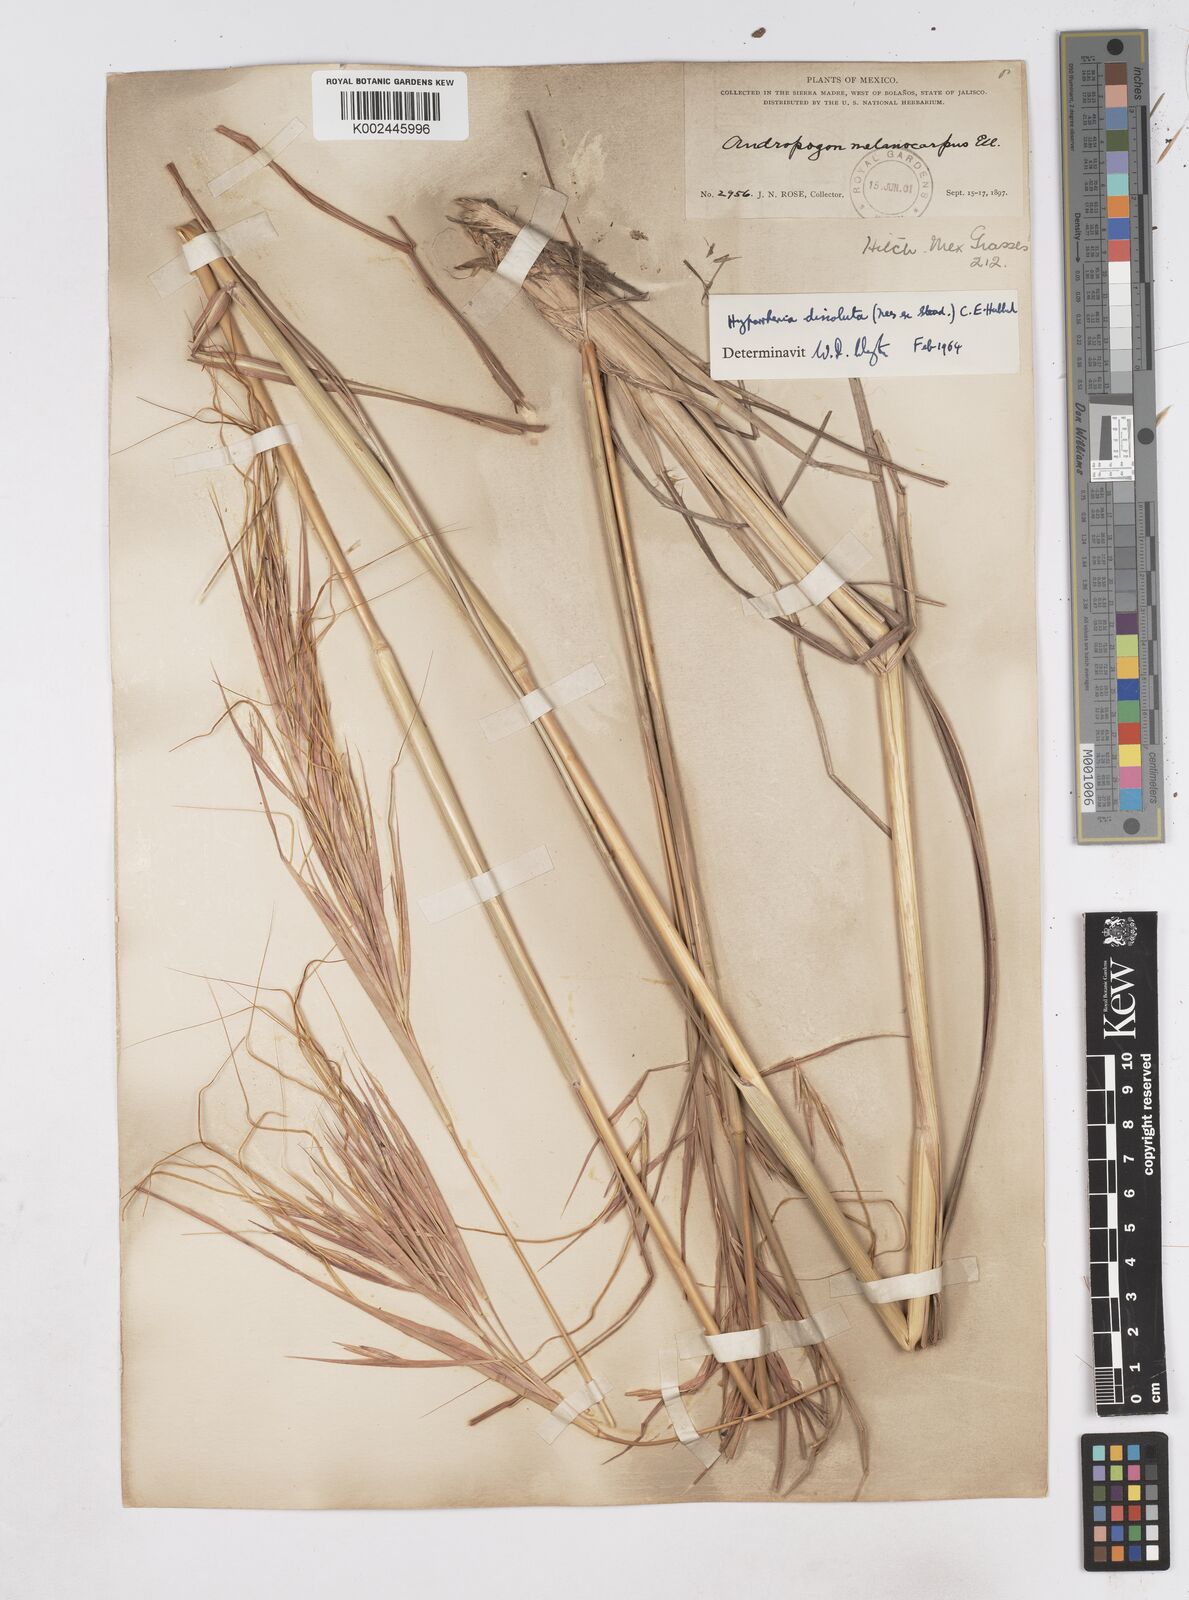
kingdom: Plantae
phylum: Tracheophyta
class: Liliopsida
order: Poales
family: Poaceae
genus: Hyperthelia
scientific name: Hyperthelia dissoluta
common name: Yellow thatching grass
